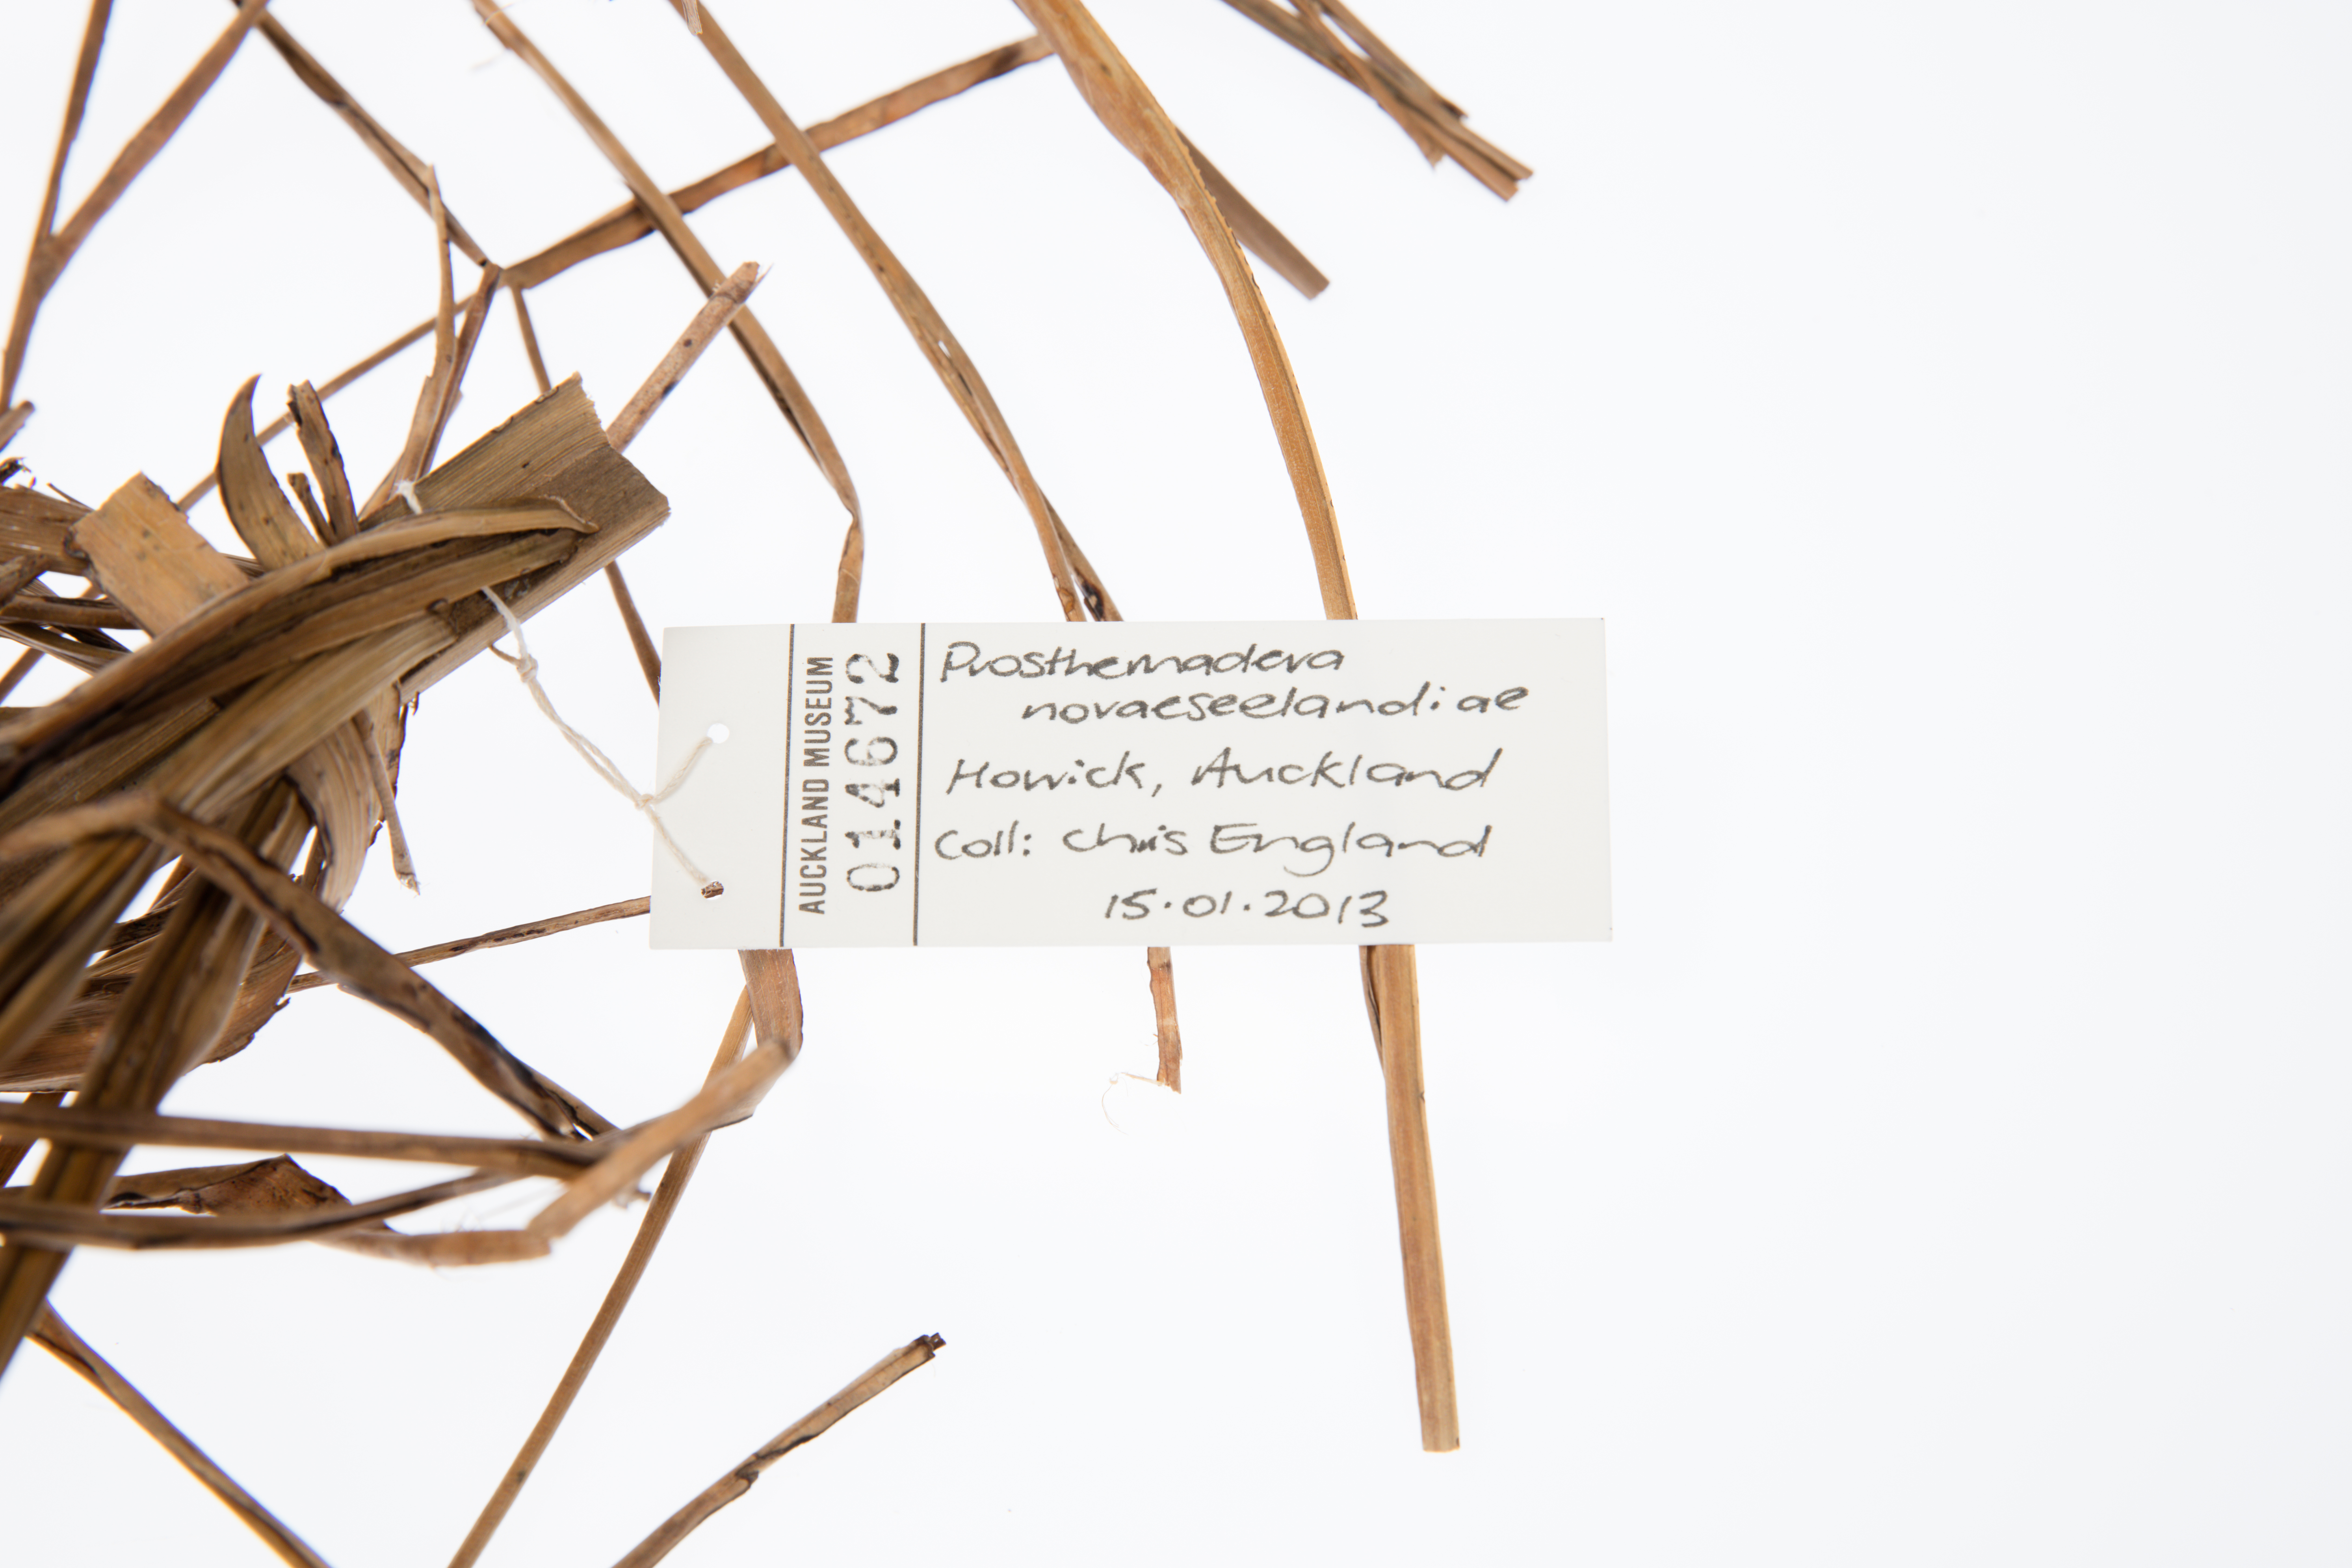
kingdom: Animalia
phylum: Chordata
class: Aves
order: Passeriformes
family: Meliphagidae
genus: Prosthemadera
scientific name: Prosthemadera novaeseelandiae
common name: Tui
